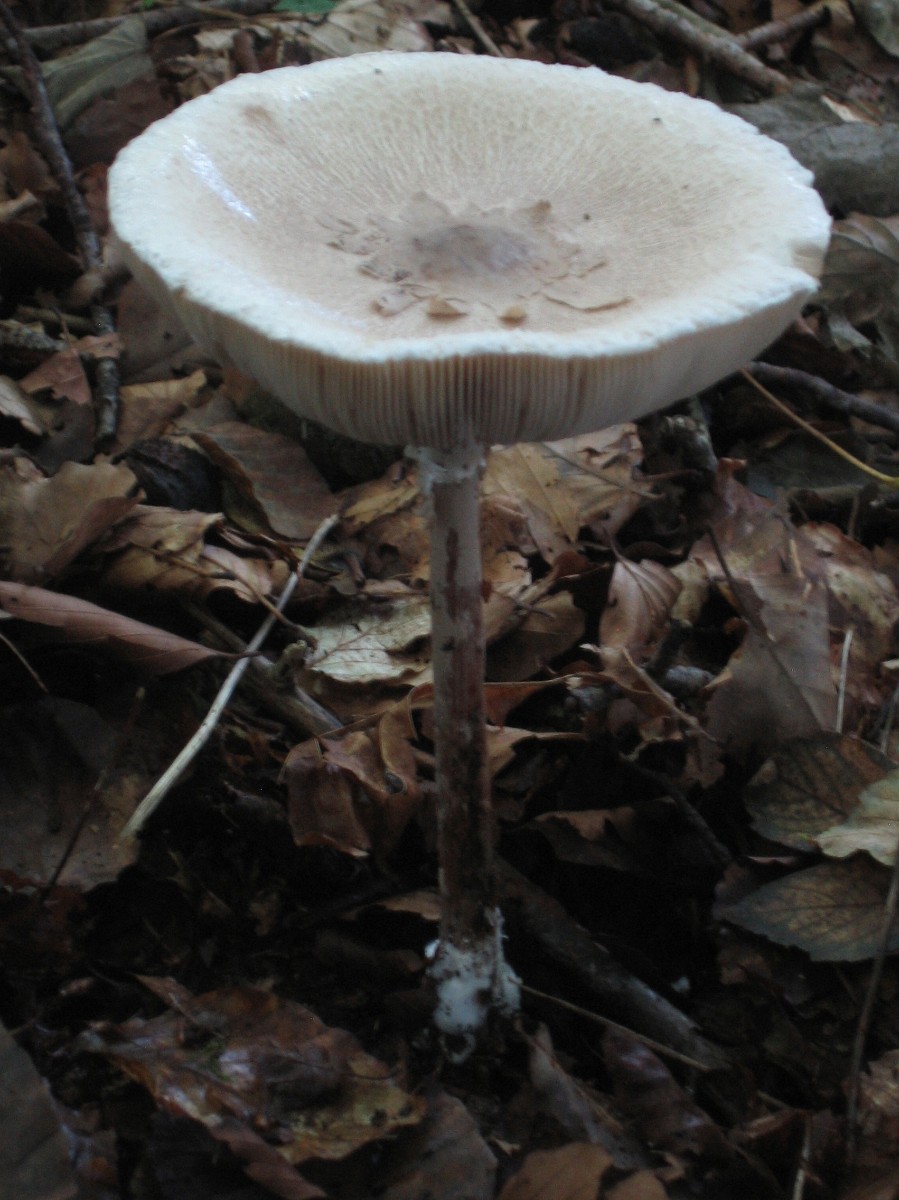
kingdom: Fungi
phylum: Basidiomycota
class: Agaricomycetes
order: Agaricales
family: Agaricaceae
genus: Macrolepiota
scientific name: Macrolepiota mastoidea
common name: puklet kæmpeparasolhat
